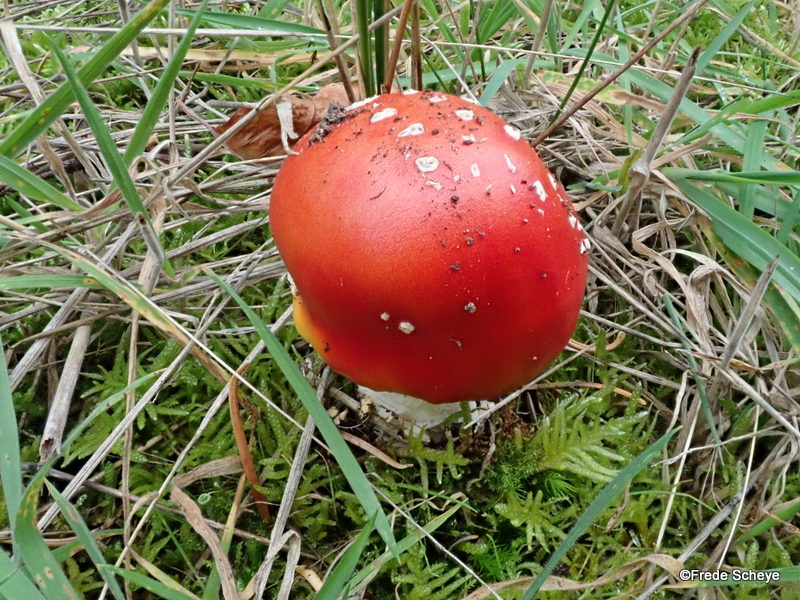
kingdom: Fungi
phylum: Basidiomycota
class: Agaricomycetes
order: Agaricales
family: Amanitaceae
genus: Amanita
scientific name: Amanita muscaria
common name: rød fluesvamp
